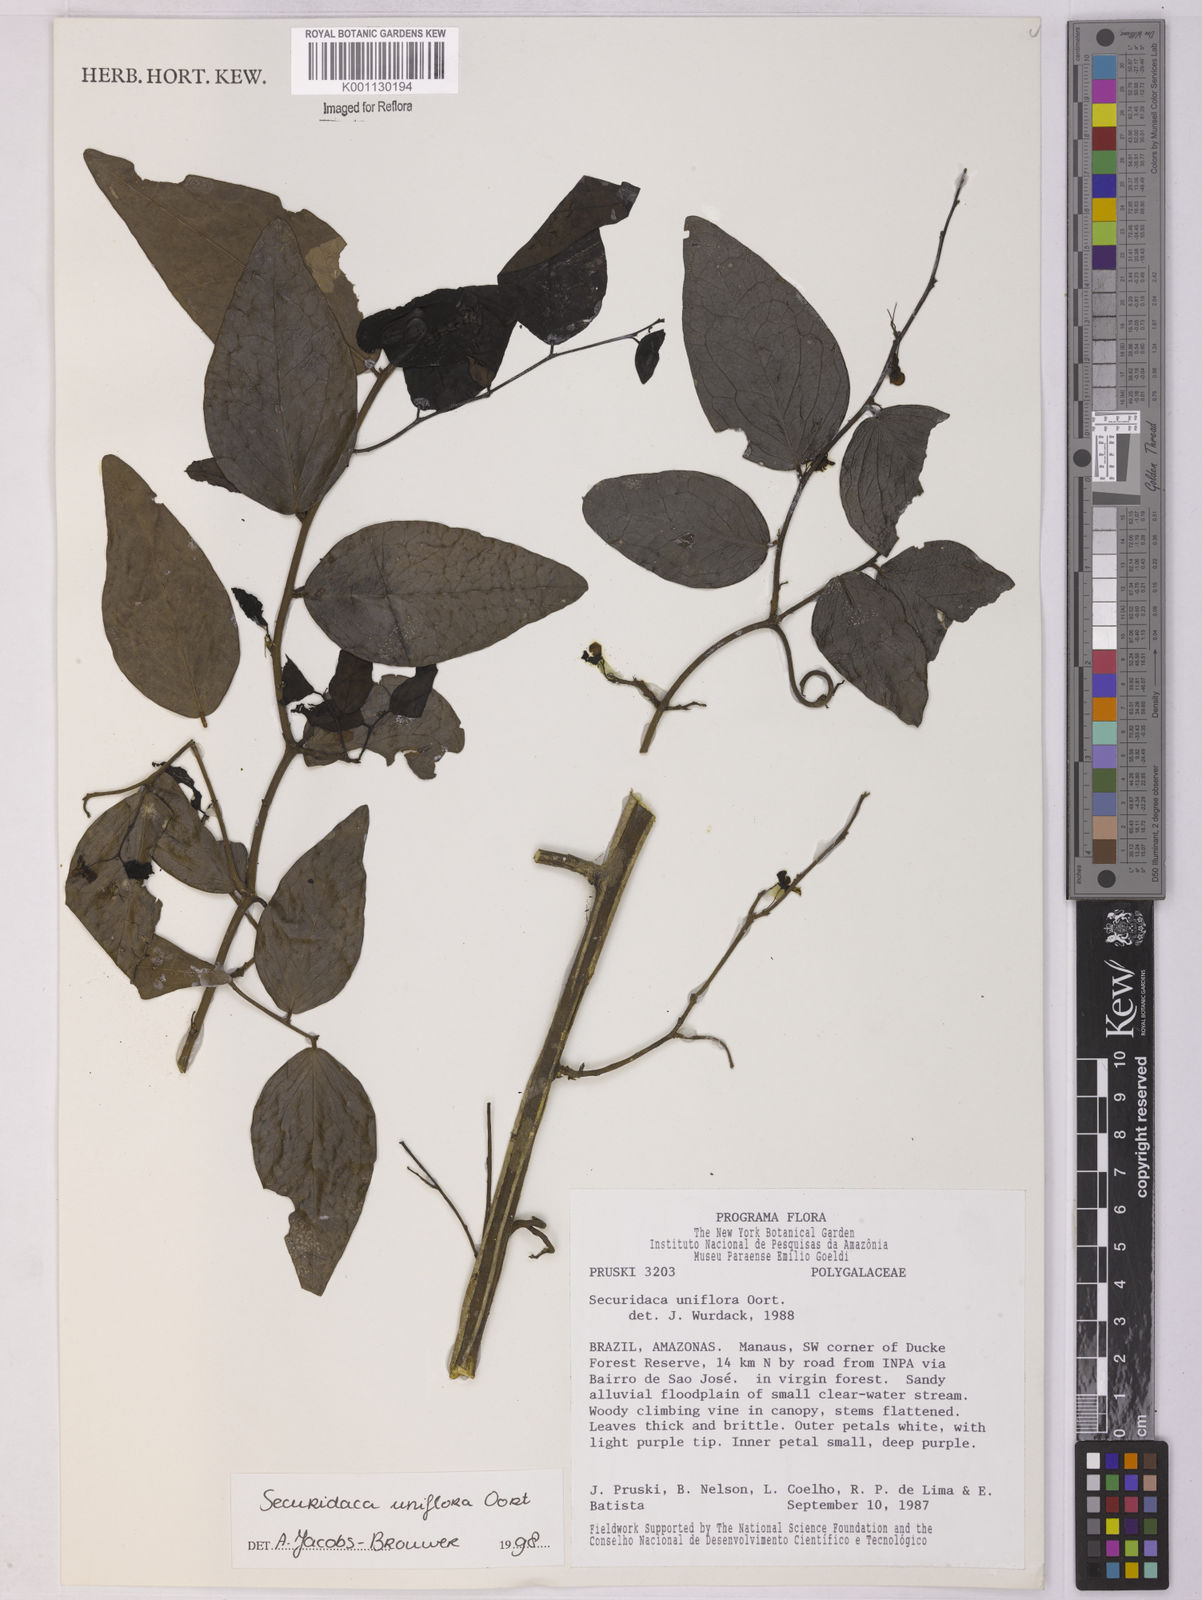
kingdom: Plantae
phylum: Tracheophyta
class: Magnoliopsida
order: Fabales
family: Polygalaceae
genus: Securidaca
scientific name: Securidaca uniflora
